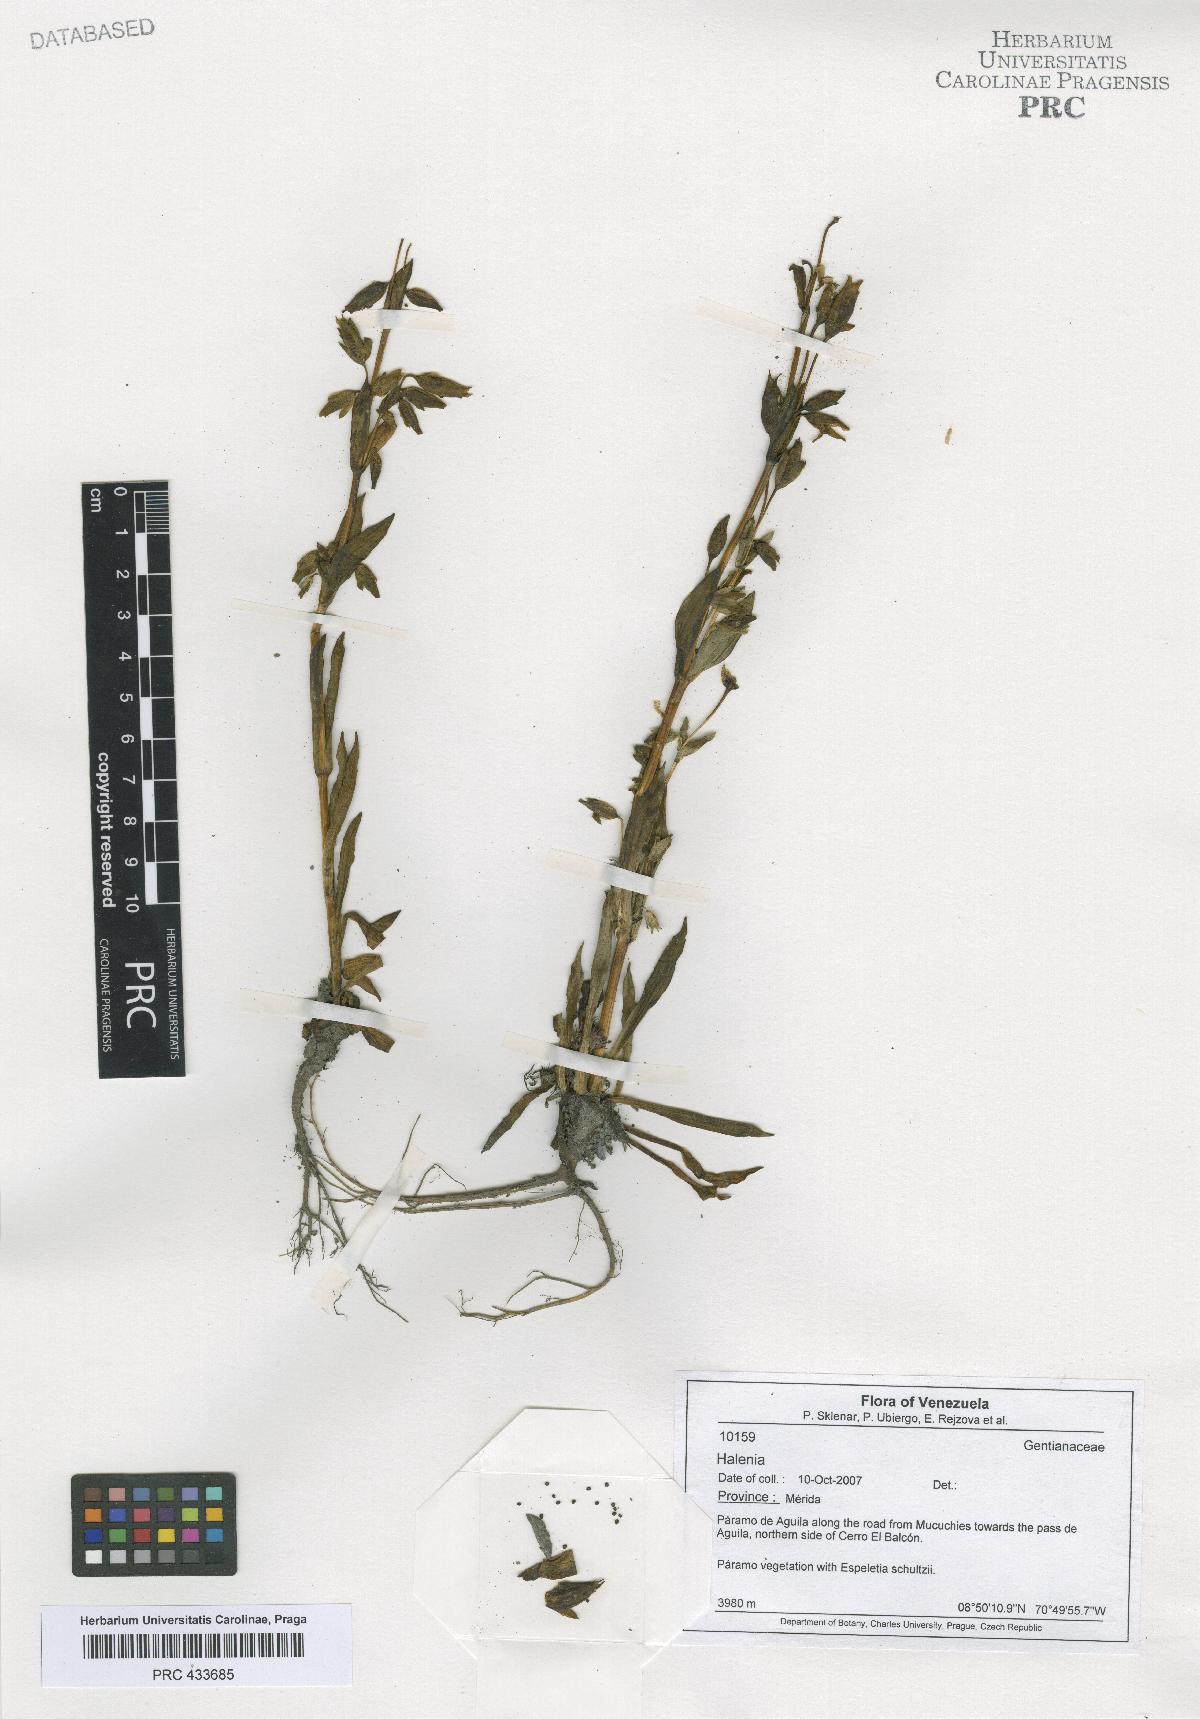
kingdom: Plantae
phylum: Tracheophyta
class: Magnoliopsida
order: Gentianales
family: Gentianaceae
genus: Halenia
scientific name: Halenia
